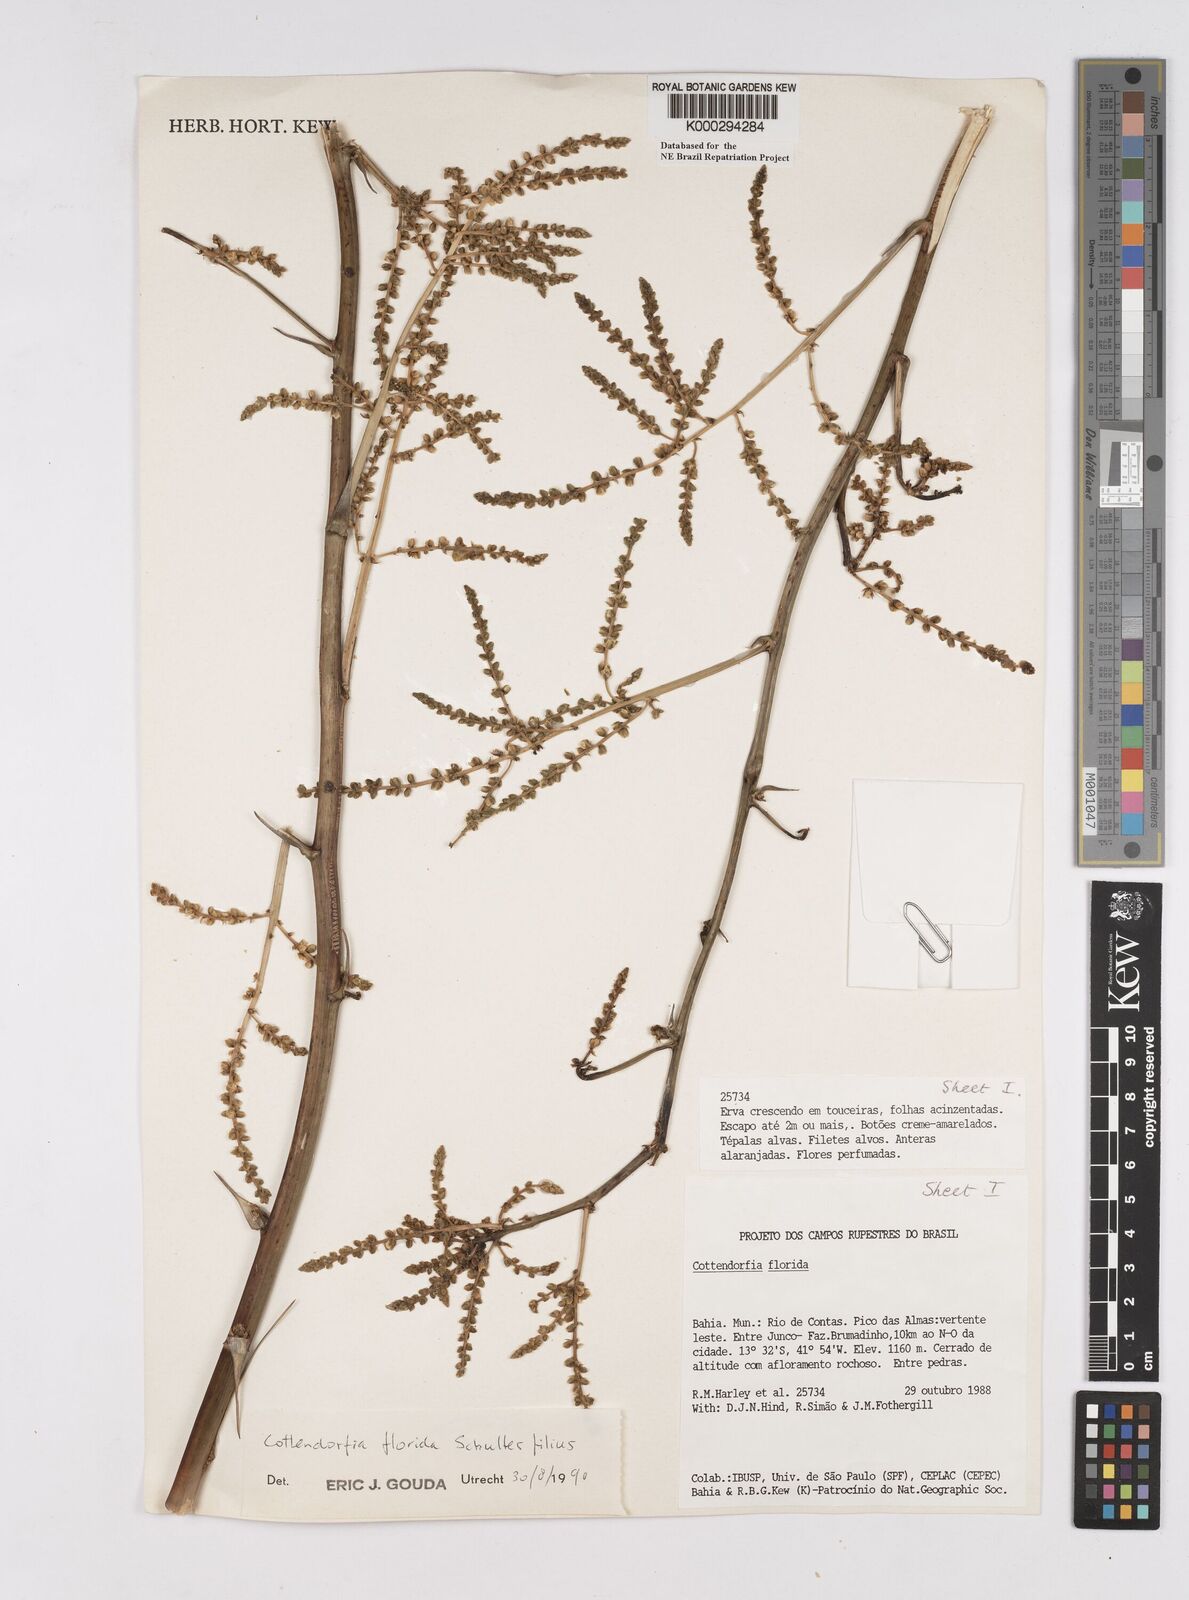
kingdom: Plantae
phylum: Tracheophyta
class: Liliopsida
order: Poales
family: Bromeliaceae
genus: Cottendorfia
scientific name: Cottendorfia florida
